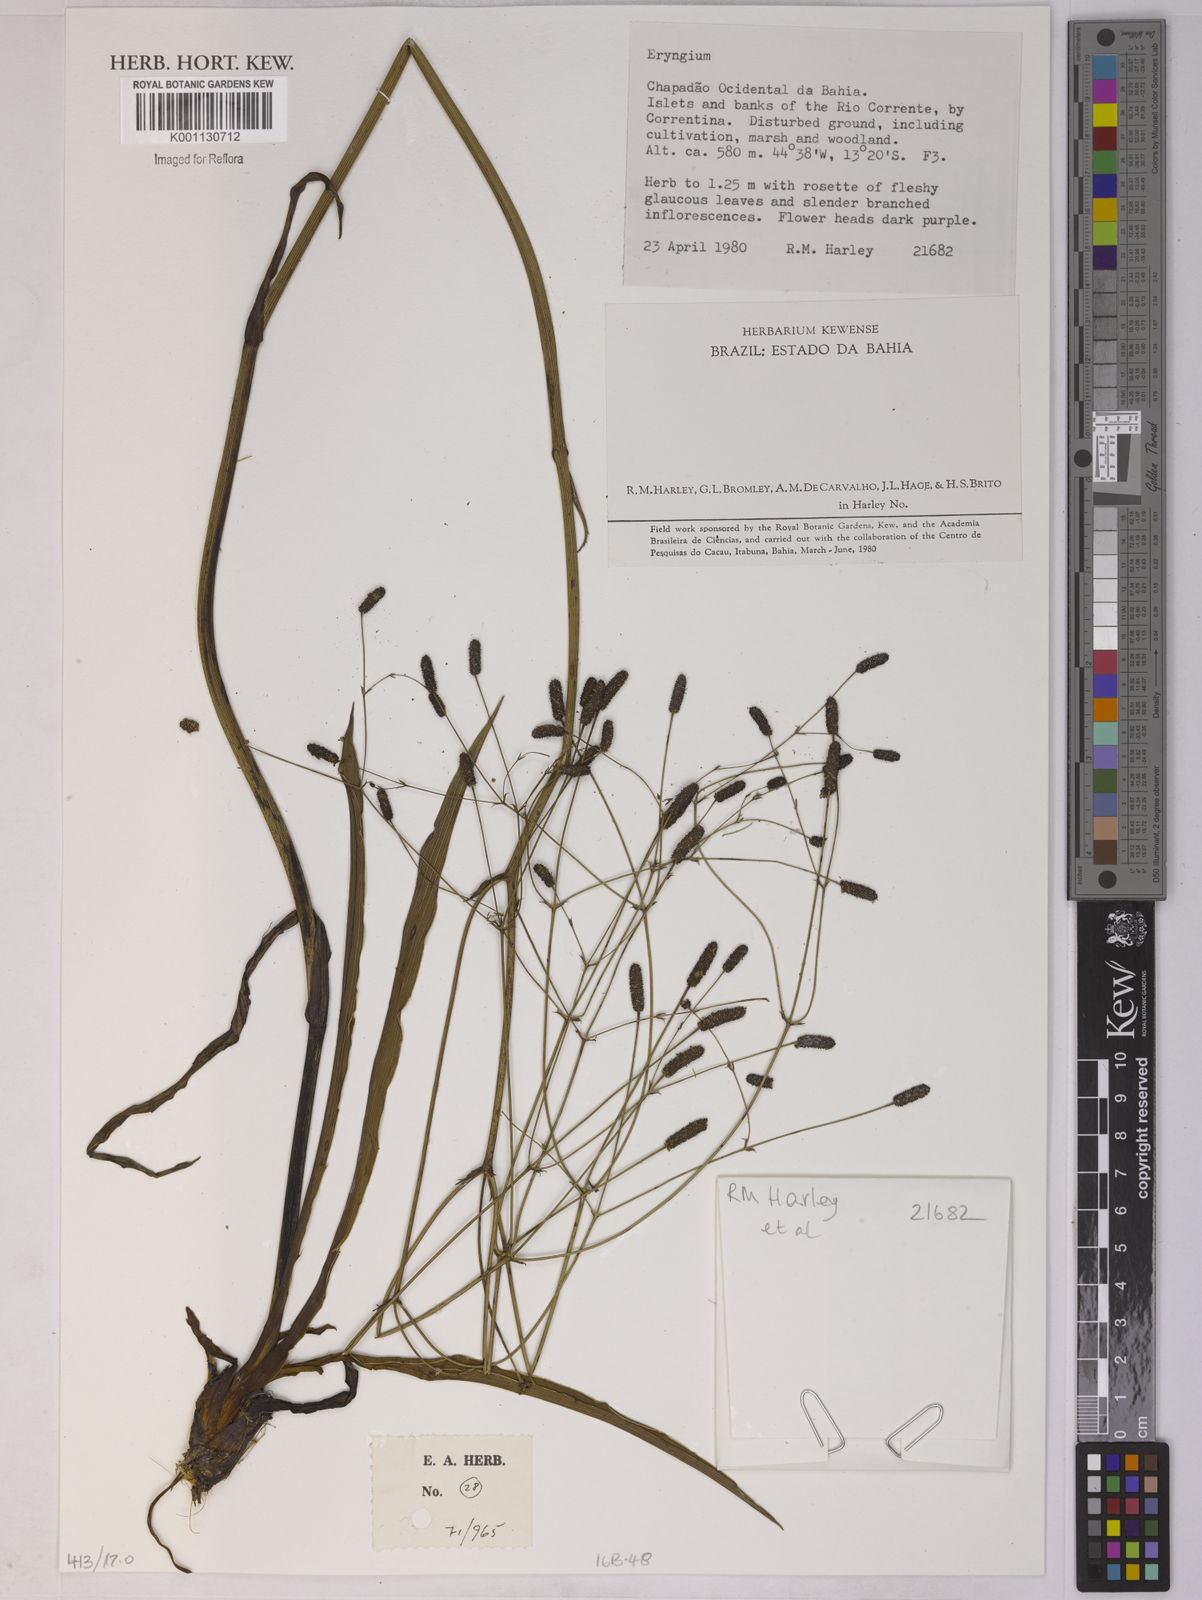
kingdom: Plantae
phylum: Tracheophyta
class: Magnoliopsida
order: Apiales
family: Apiaceae
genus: Eryngium
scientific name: Eryngium
